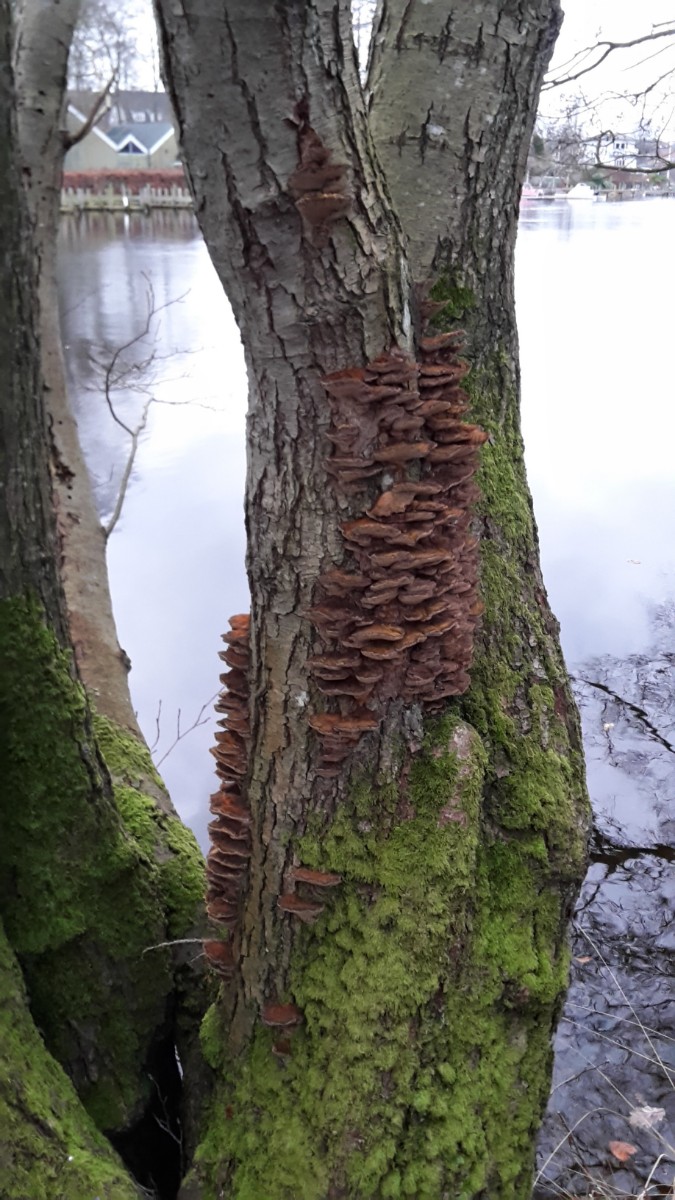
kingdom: Fungi
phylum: Basidiomycota
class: Agaricomycetes
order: Hymenochaetales
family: Hymenochaetaceae
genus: Xanthoporia
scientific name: Xanthoporia radiata
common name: elle-spejlporesvamp
